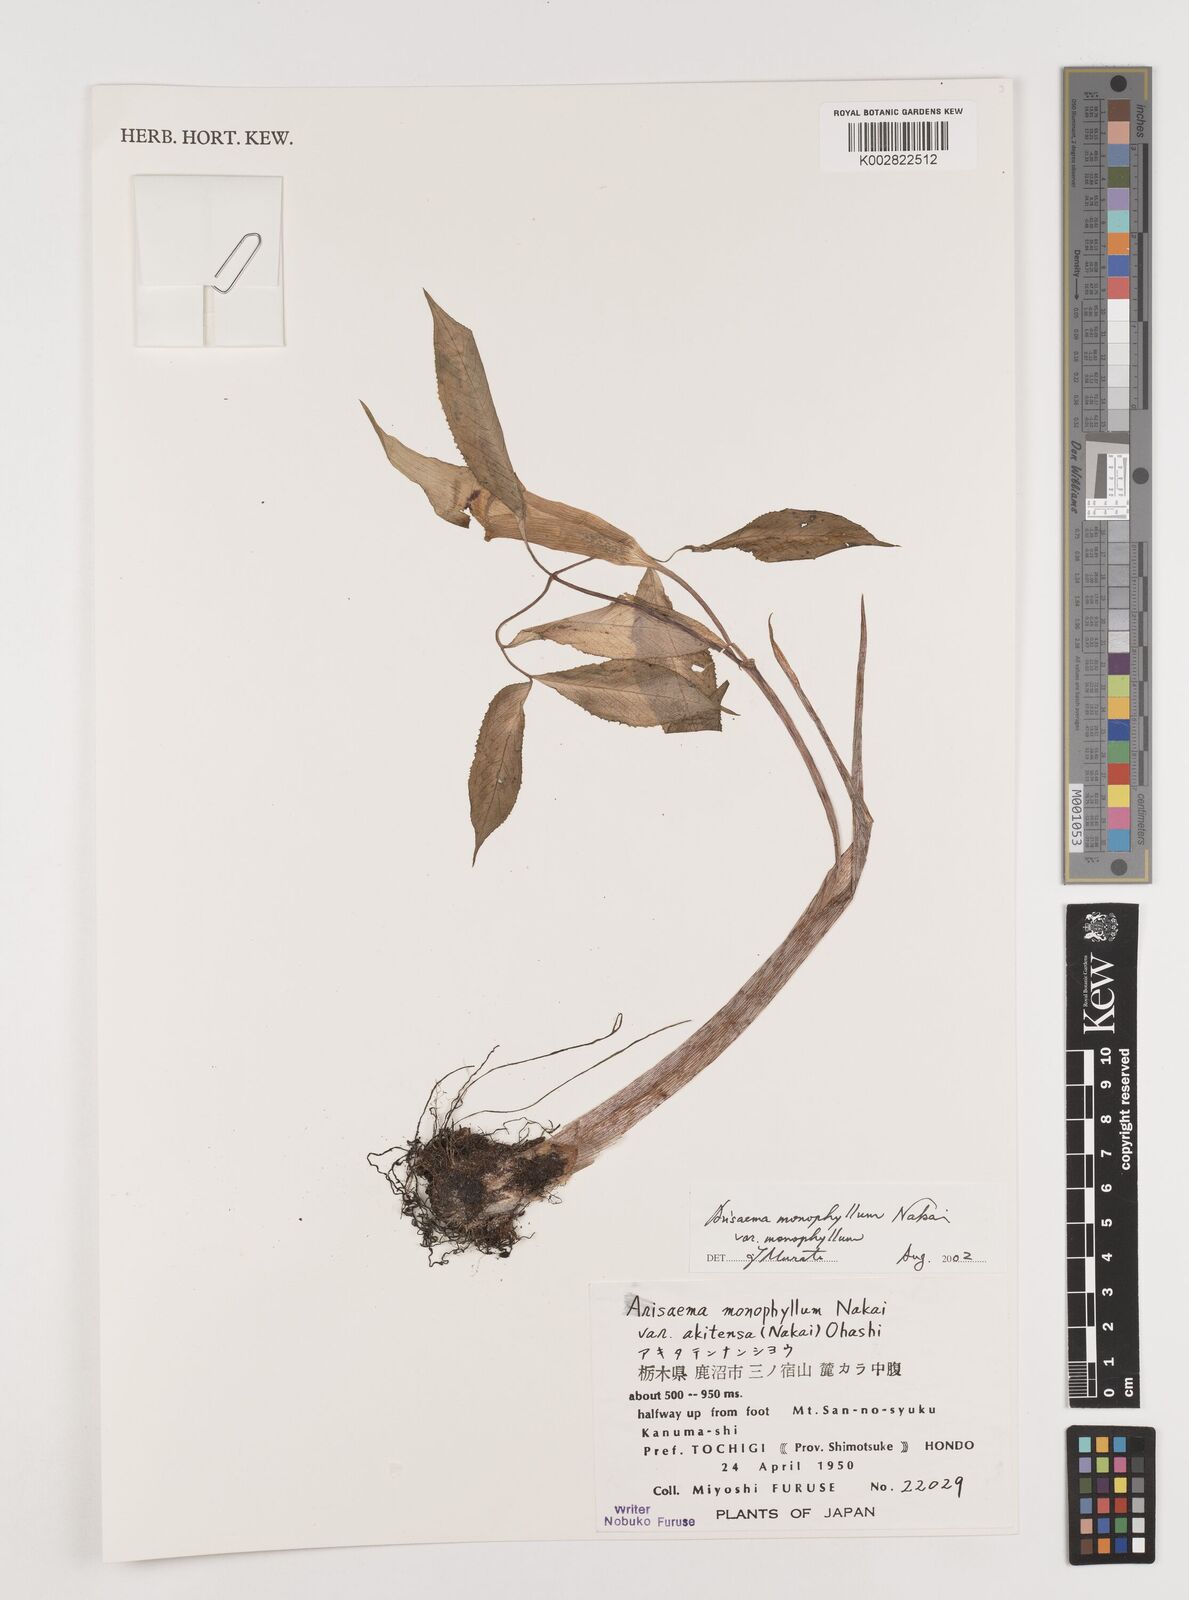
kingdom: Plantae
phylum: Tracheophyta
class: Liliopsida
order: Alismatales
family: Araceae
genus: Arisaema
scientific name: Arisaema monophyllum
